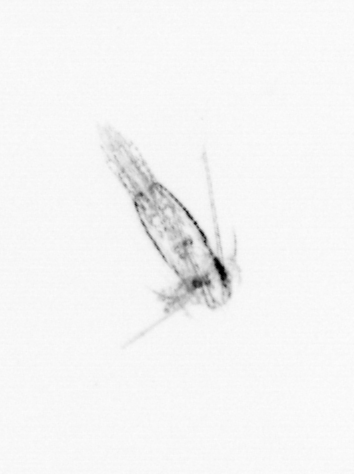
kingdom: Animalia
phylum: Arthropoda
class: Copepoda
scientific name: Copepoda
